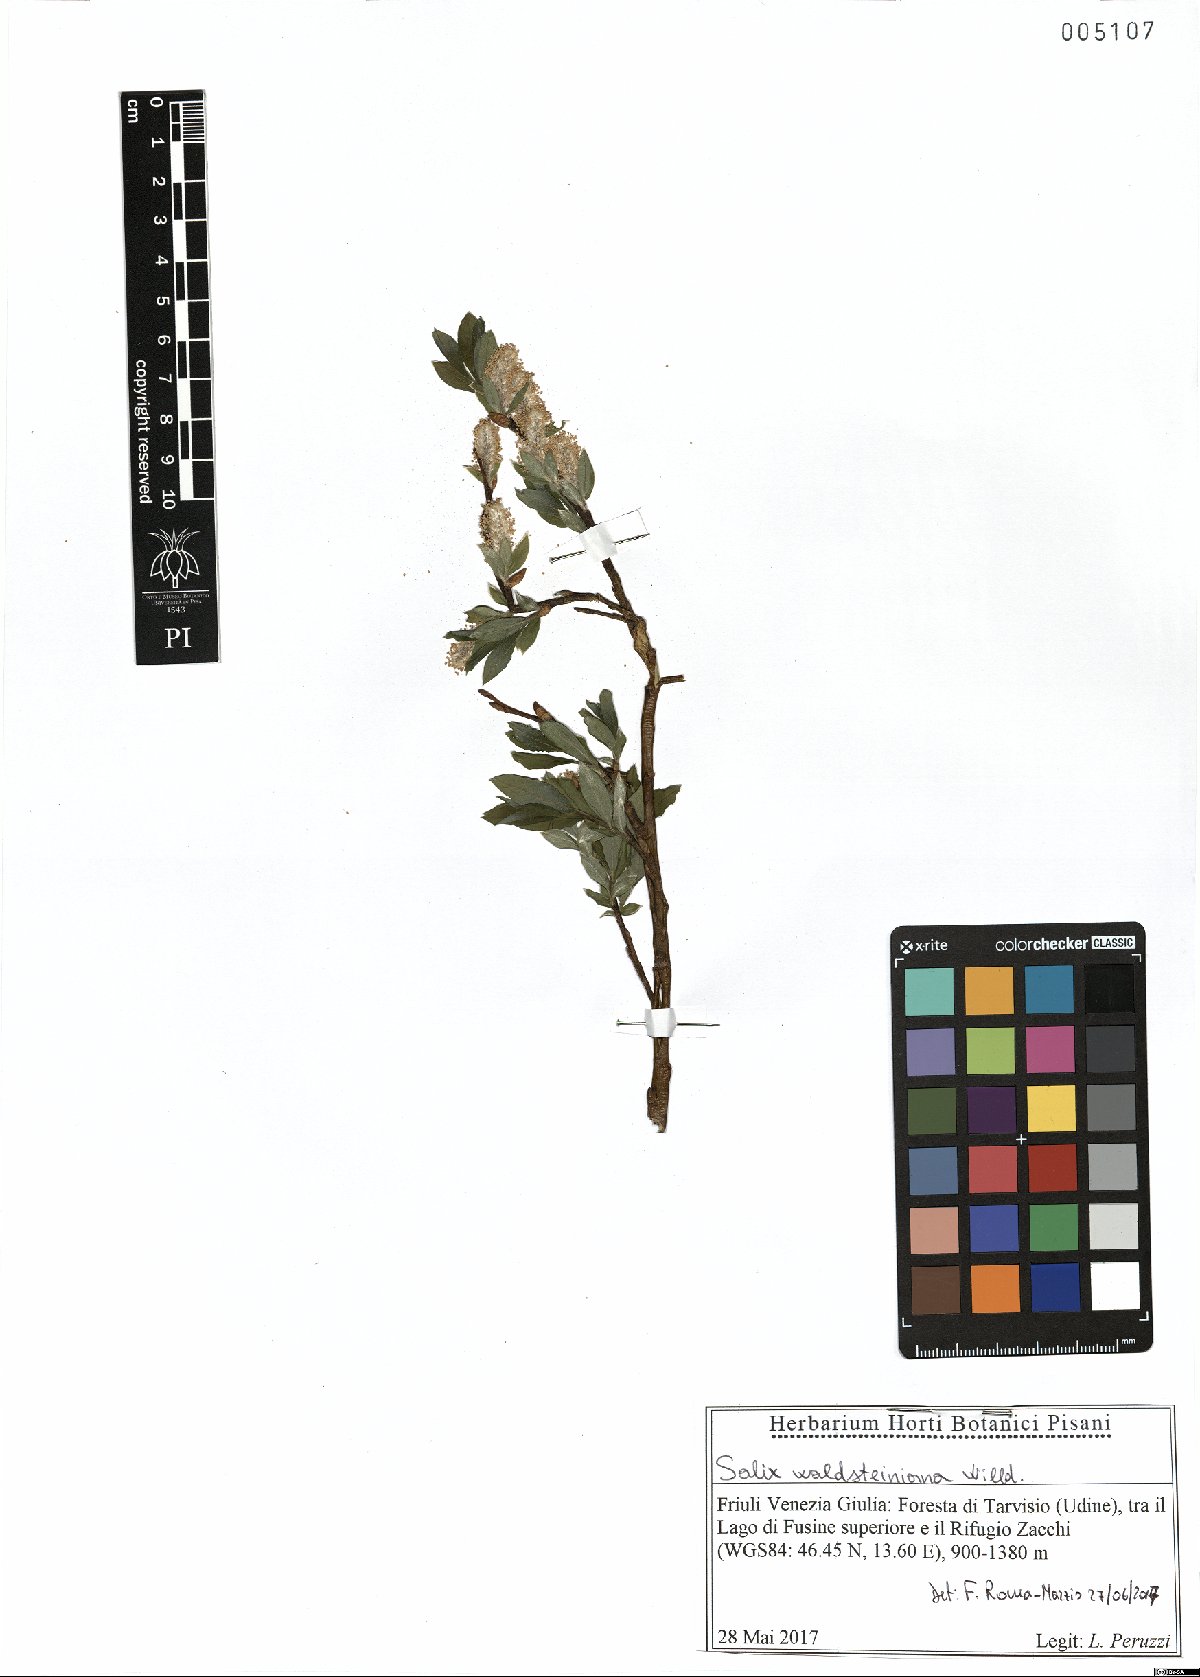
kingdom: Plantae
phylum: Tracheophyta
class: Magnoliopsida
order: Malpighiales
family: Salicaceae
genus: Salix
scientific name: Salix waldsteiniana
